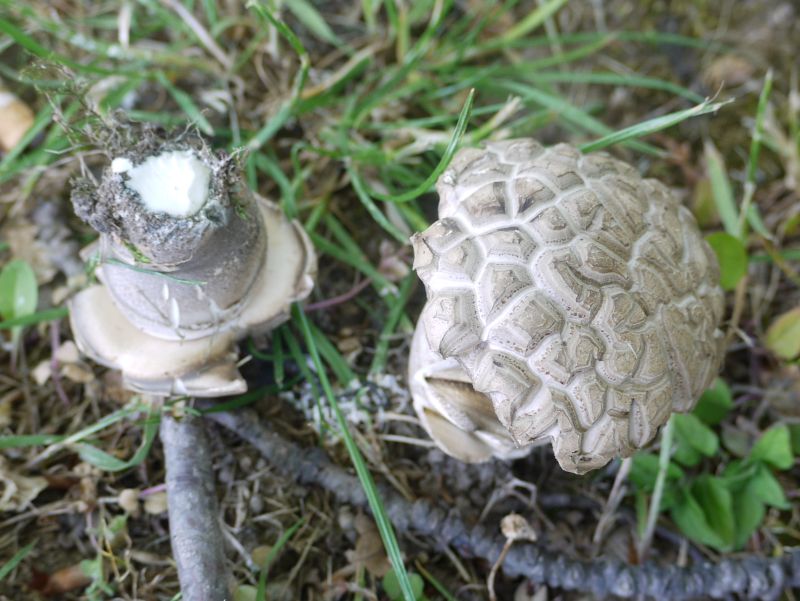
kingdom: Fungi
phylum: Basidiomycota
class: Agaricomycetes
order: Boletales
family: Boletaceae
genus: Leccinum
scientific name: Leccinum duriusculum
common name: poppel-skælrørhat
